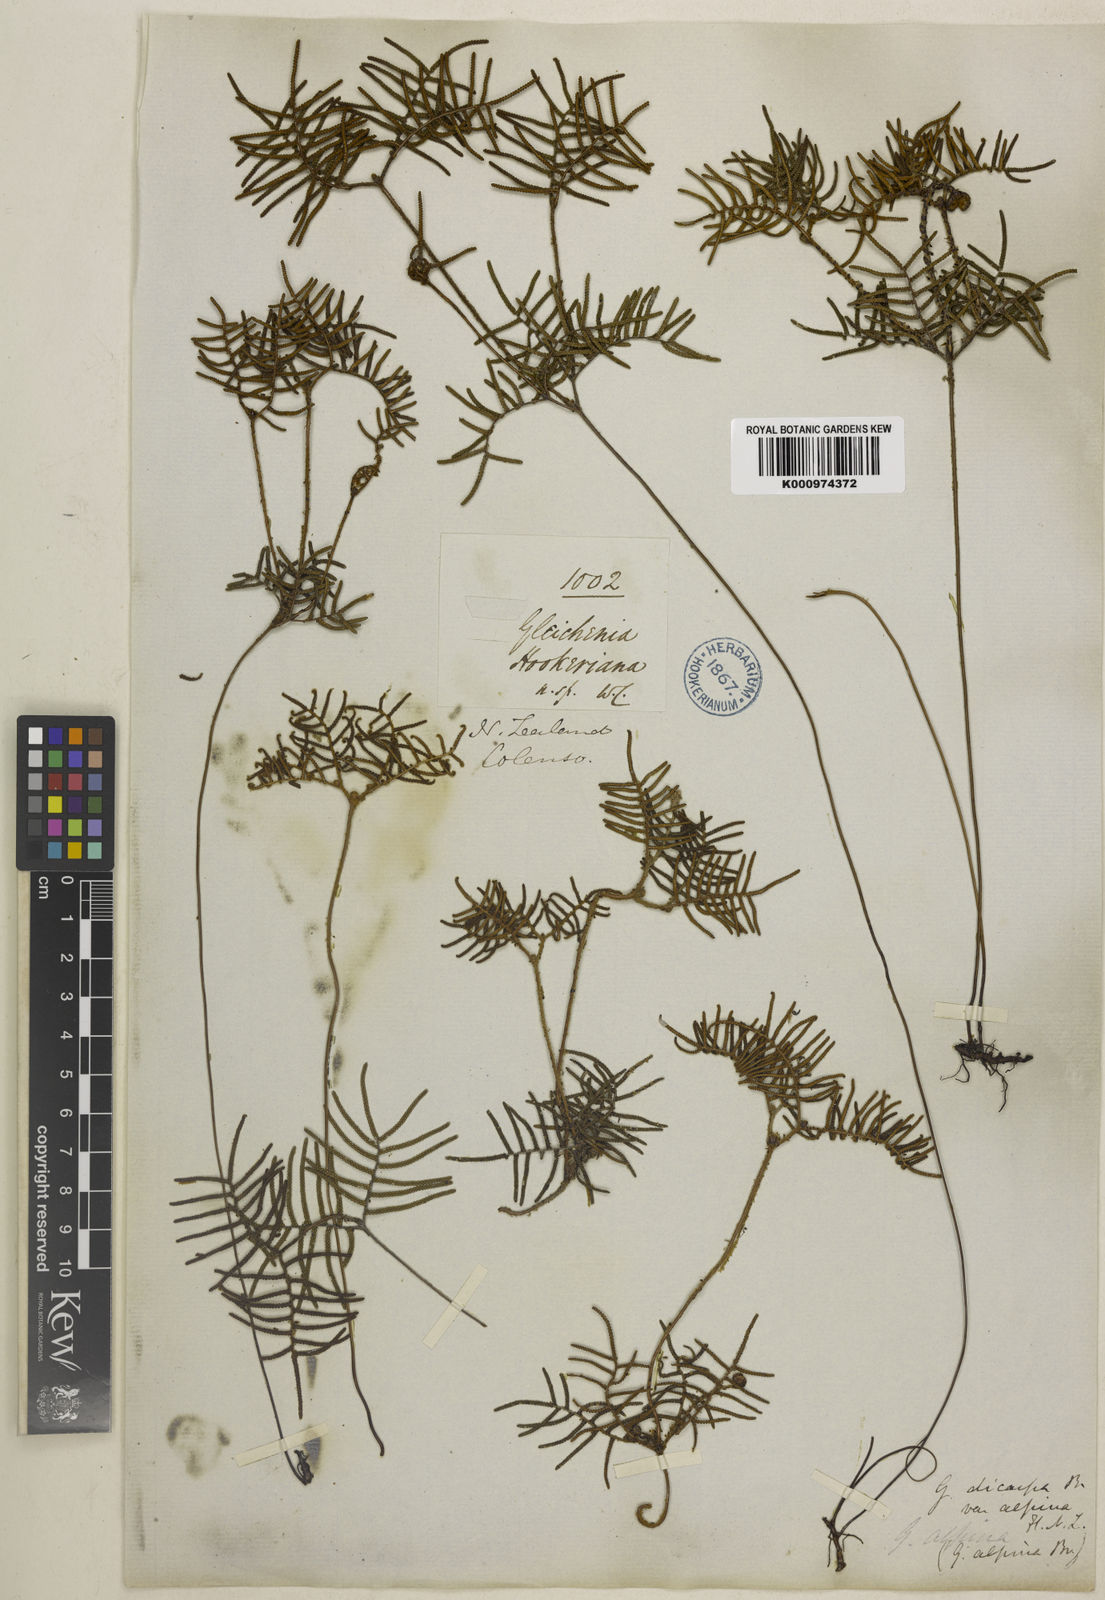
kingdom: Plantae
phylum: Tracheophyta
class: Polypodiopsida
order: Gleicheniales
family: Gleicheniaceae
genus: Gleichenia
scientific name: Gleichenia alpina
